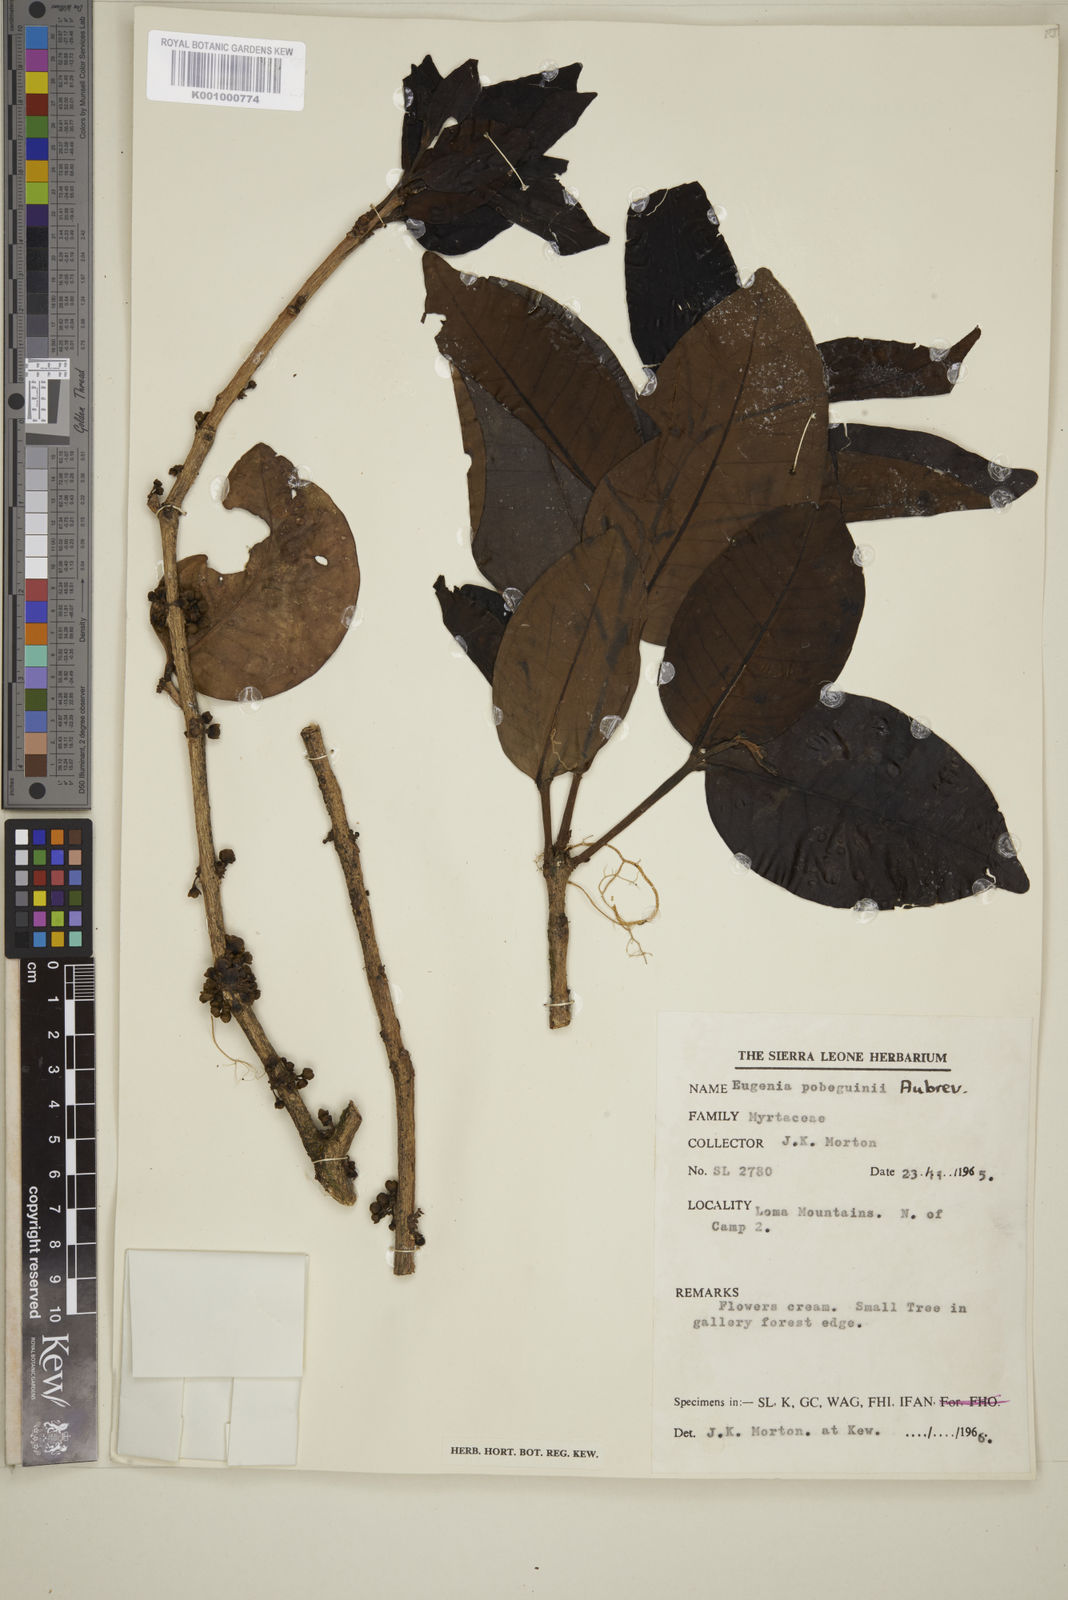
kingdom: Plantae
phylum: Tracheophyta
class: Magnoliopsida
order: Myrtales
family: Myrtaceae
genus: Eugenia
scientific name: Eugenia
